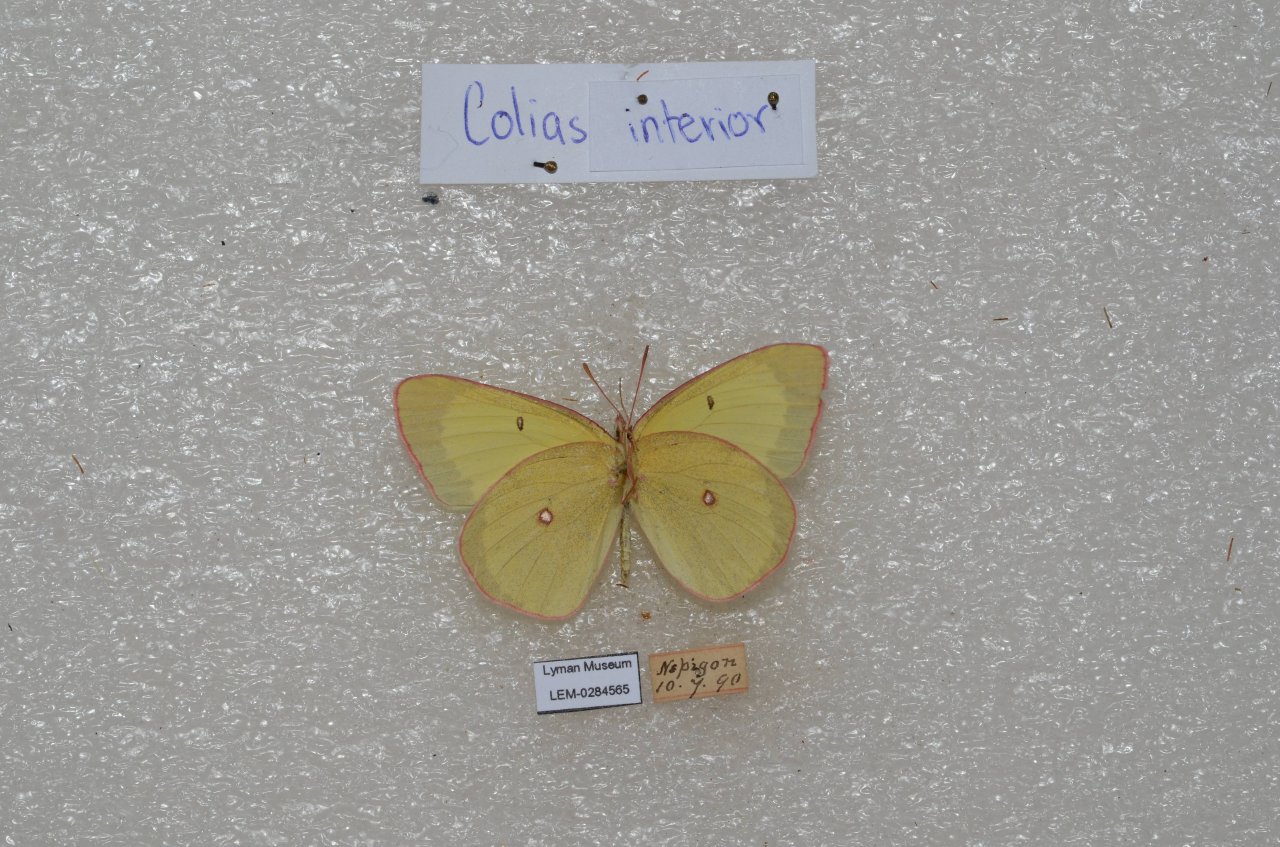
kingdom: Animalia
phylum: Arthropoda
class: Insecta
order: Lepidoptera
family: Pieridae
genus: Colias
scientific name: Colias interior
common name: Pink-edged Sulphur
